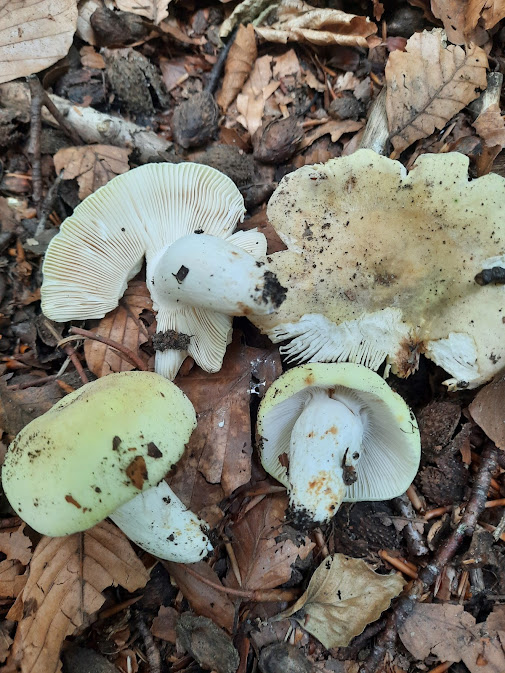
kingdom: Fungi
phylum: Basidiomycota
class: Agaricomycetes
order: Russulales
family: Russulaceae
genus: Russula
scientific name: Russula violeipes
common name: ferskengul skørhat
